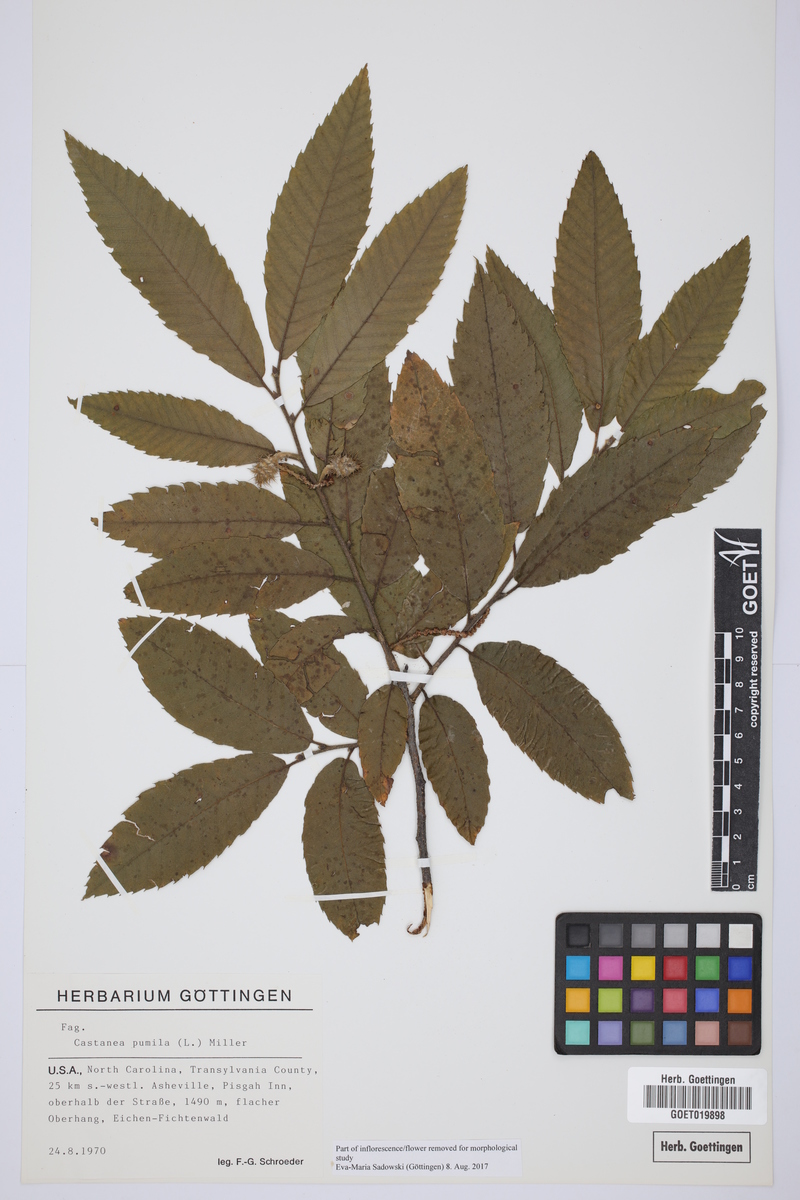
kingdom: Plantae
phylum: Tracheophyta
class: Magnoliopsida
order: Fagales
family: Fagaceae
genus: Castanea
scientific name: Castanea pumila
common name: Chinkapin
